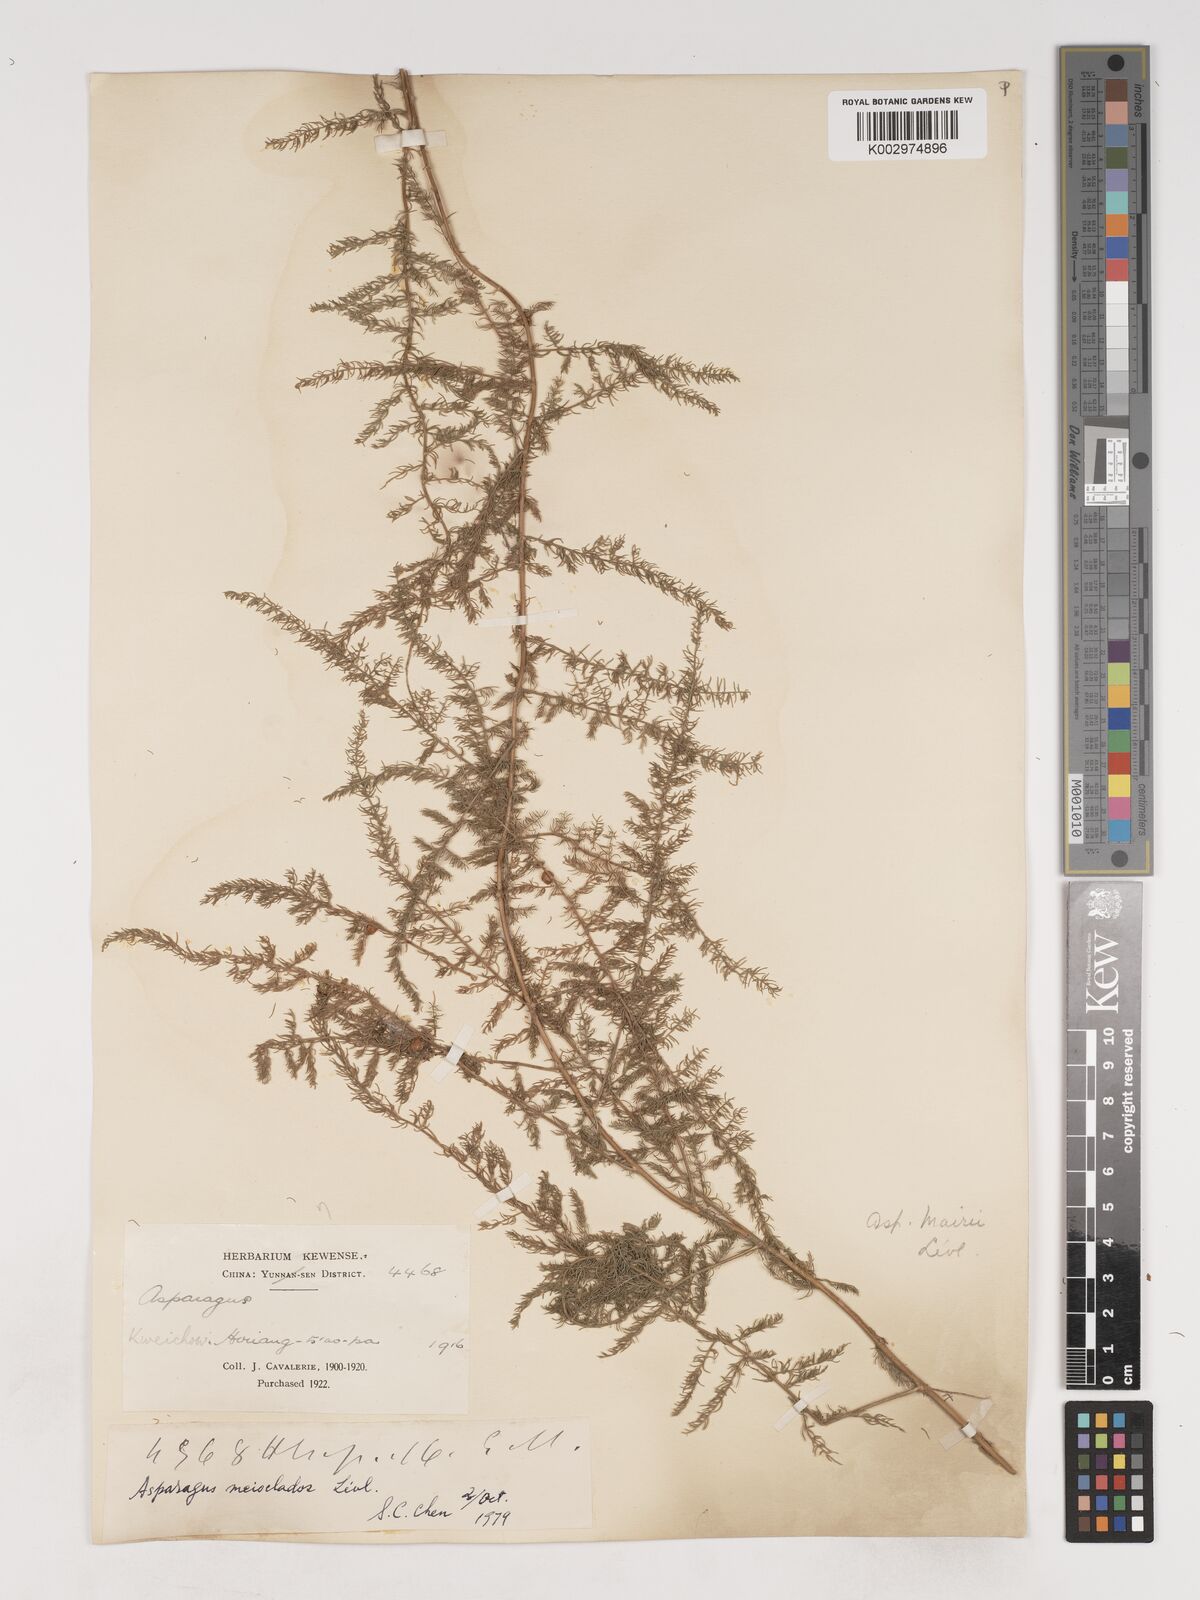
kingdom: Plantae
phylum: Tracheophyta
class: Liliopsida
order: Asparagales
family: Asparagaceae
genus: Asparagus
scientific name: Asparagus meioclados
